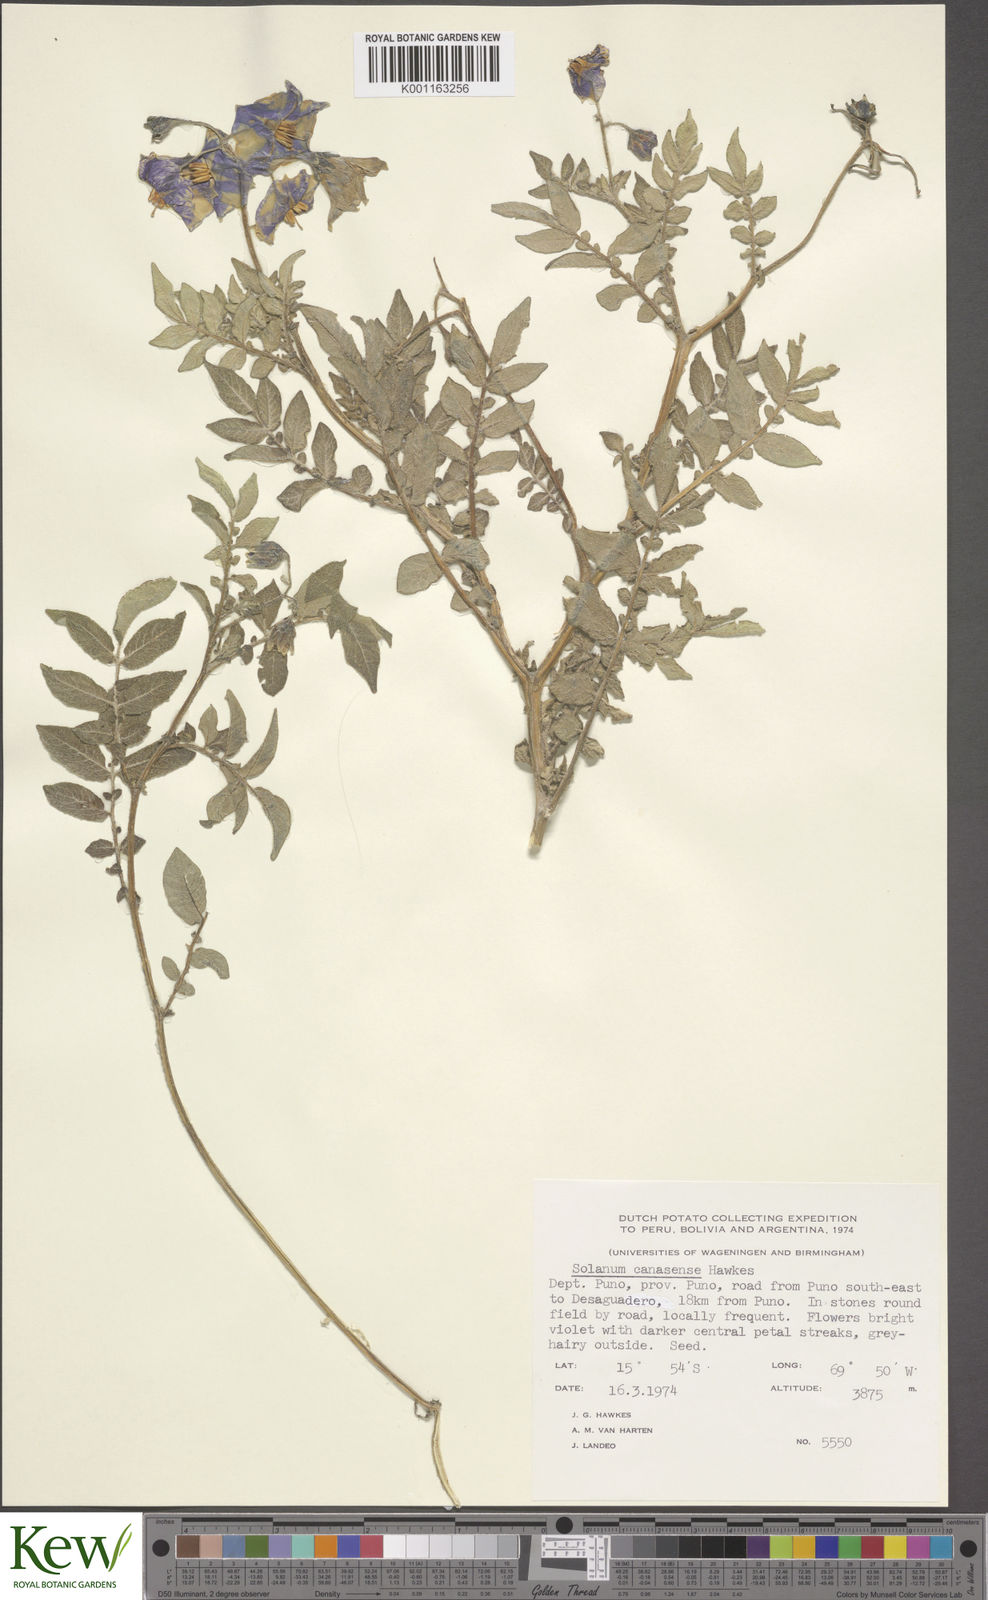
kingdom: Plantae
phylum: Tracheophyta
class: Magnoliopsida
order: Solanales
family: Solanaceae
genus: Solanum
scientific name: Solanum candolleanum
